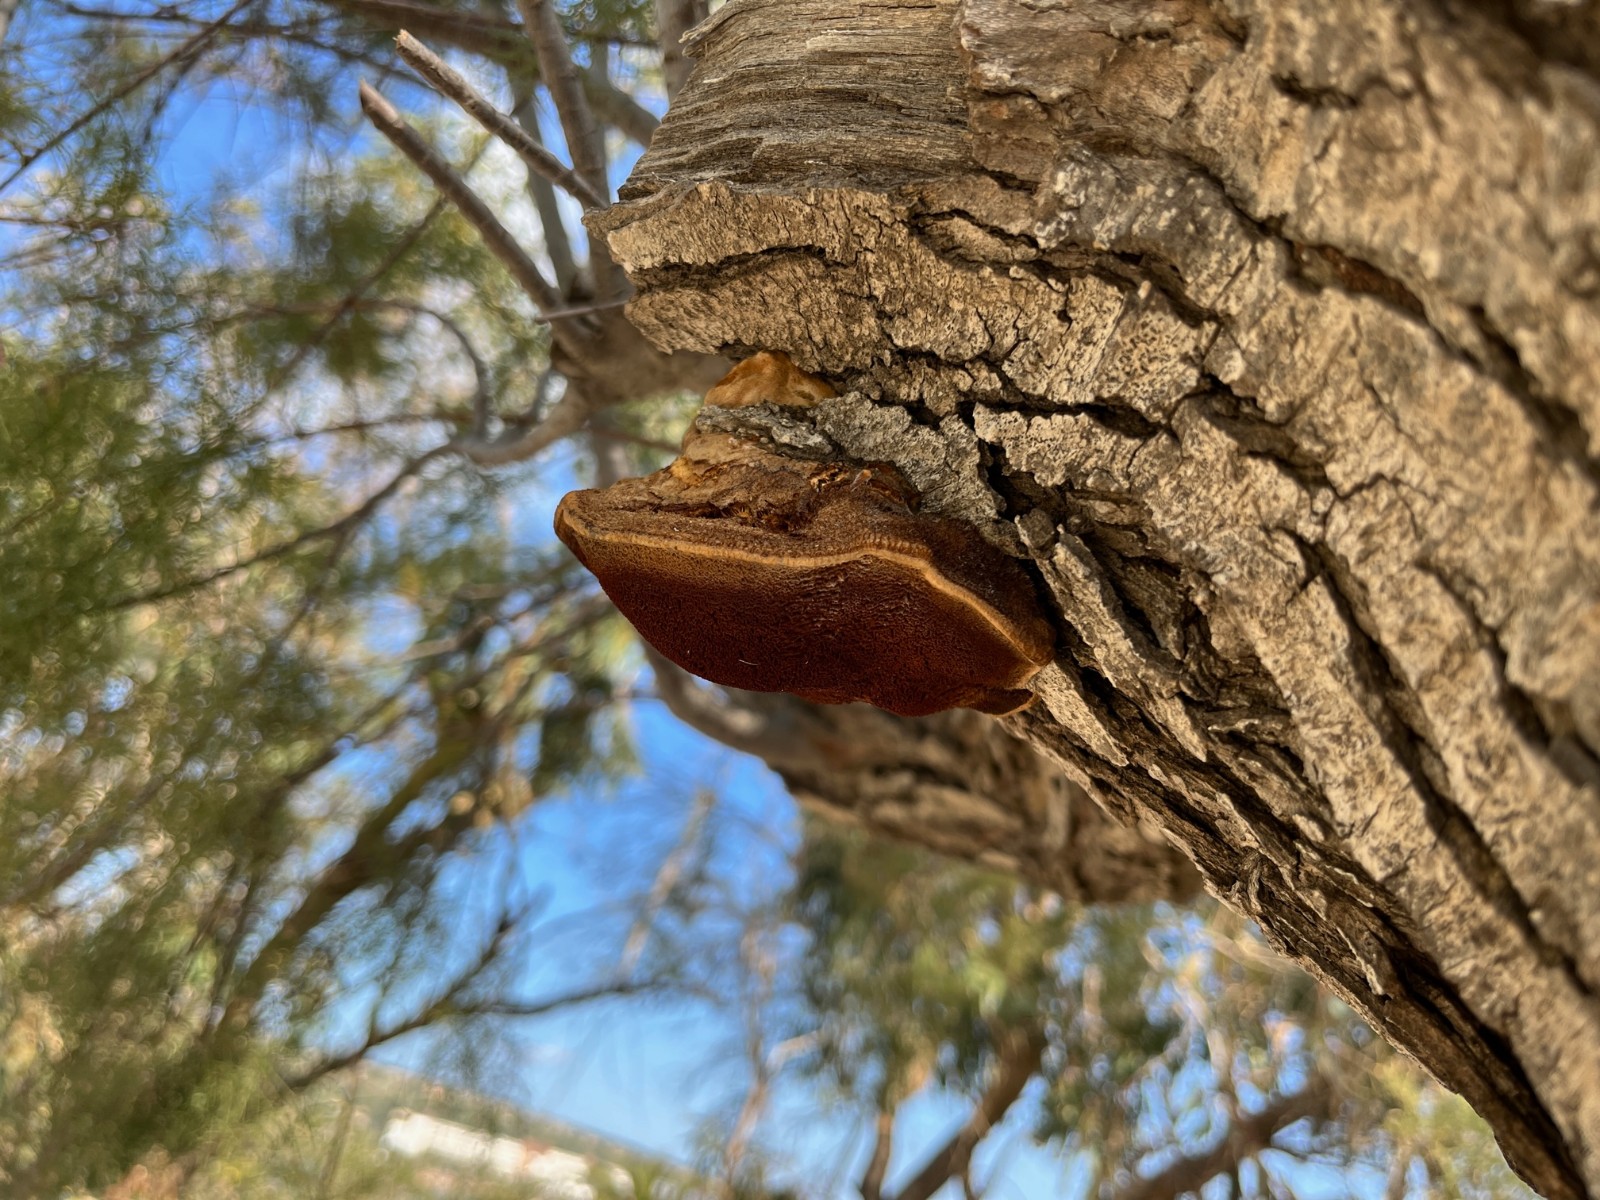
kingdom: Fungi
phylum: Basidiomycota
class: Agaricomycetes
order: Hymenochaetales
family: Hymenochaetaceae
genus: Inocutis
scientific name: Inocutis tamaricis
